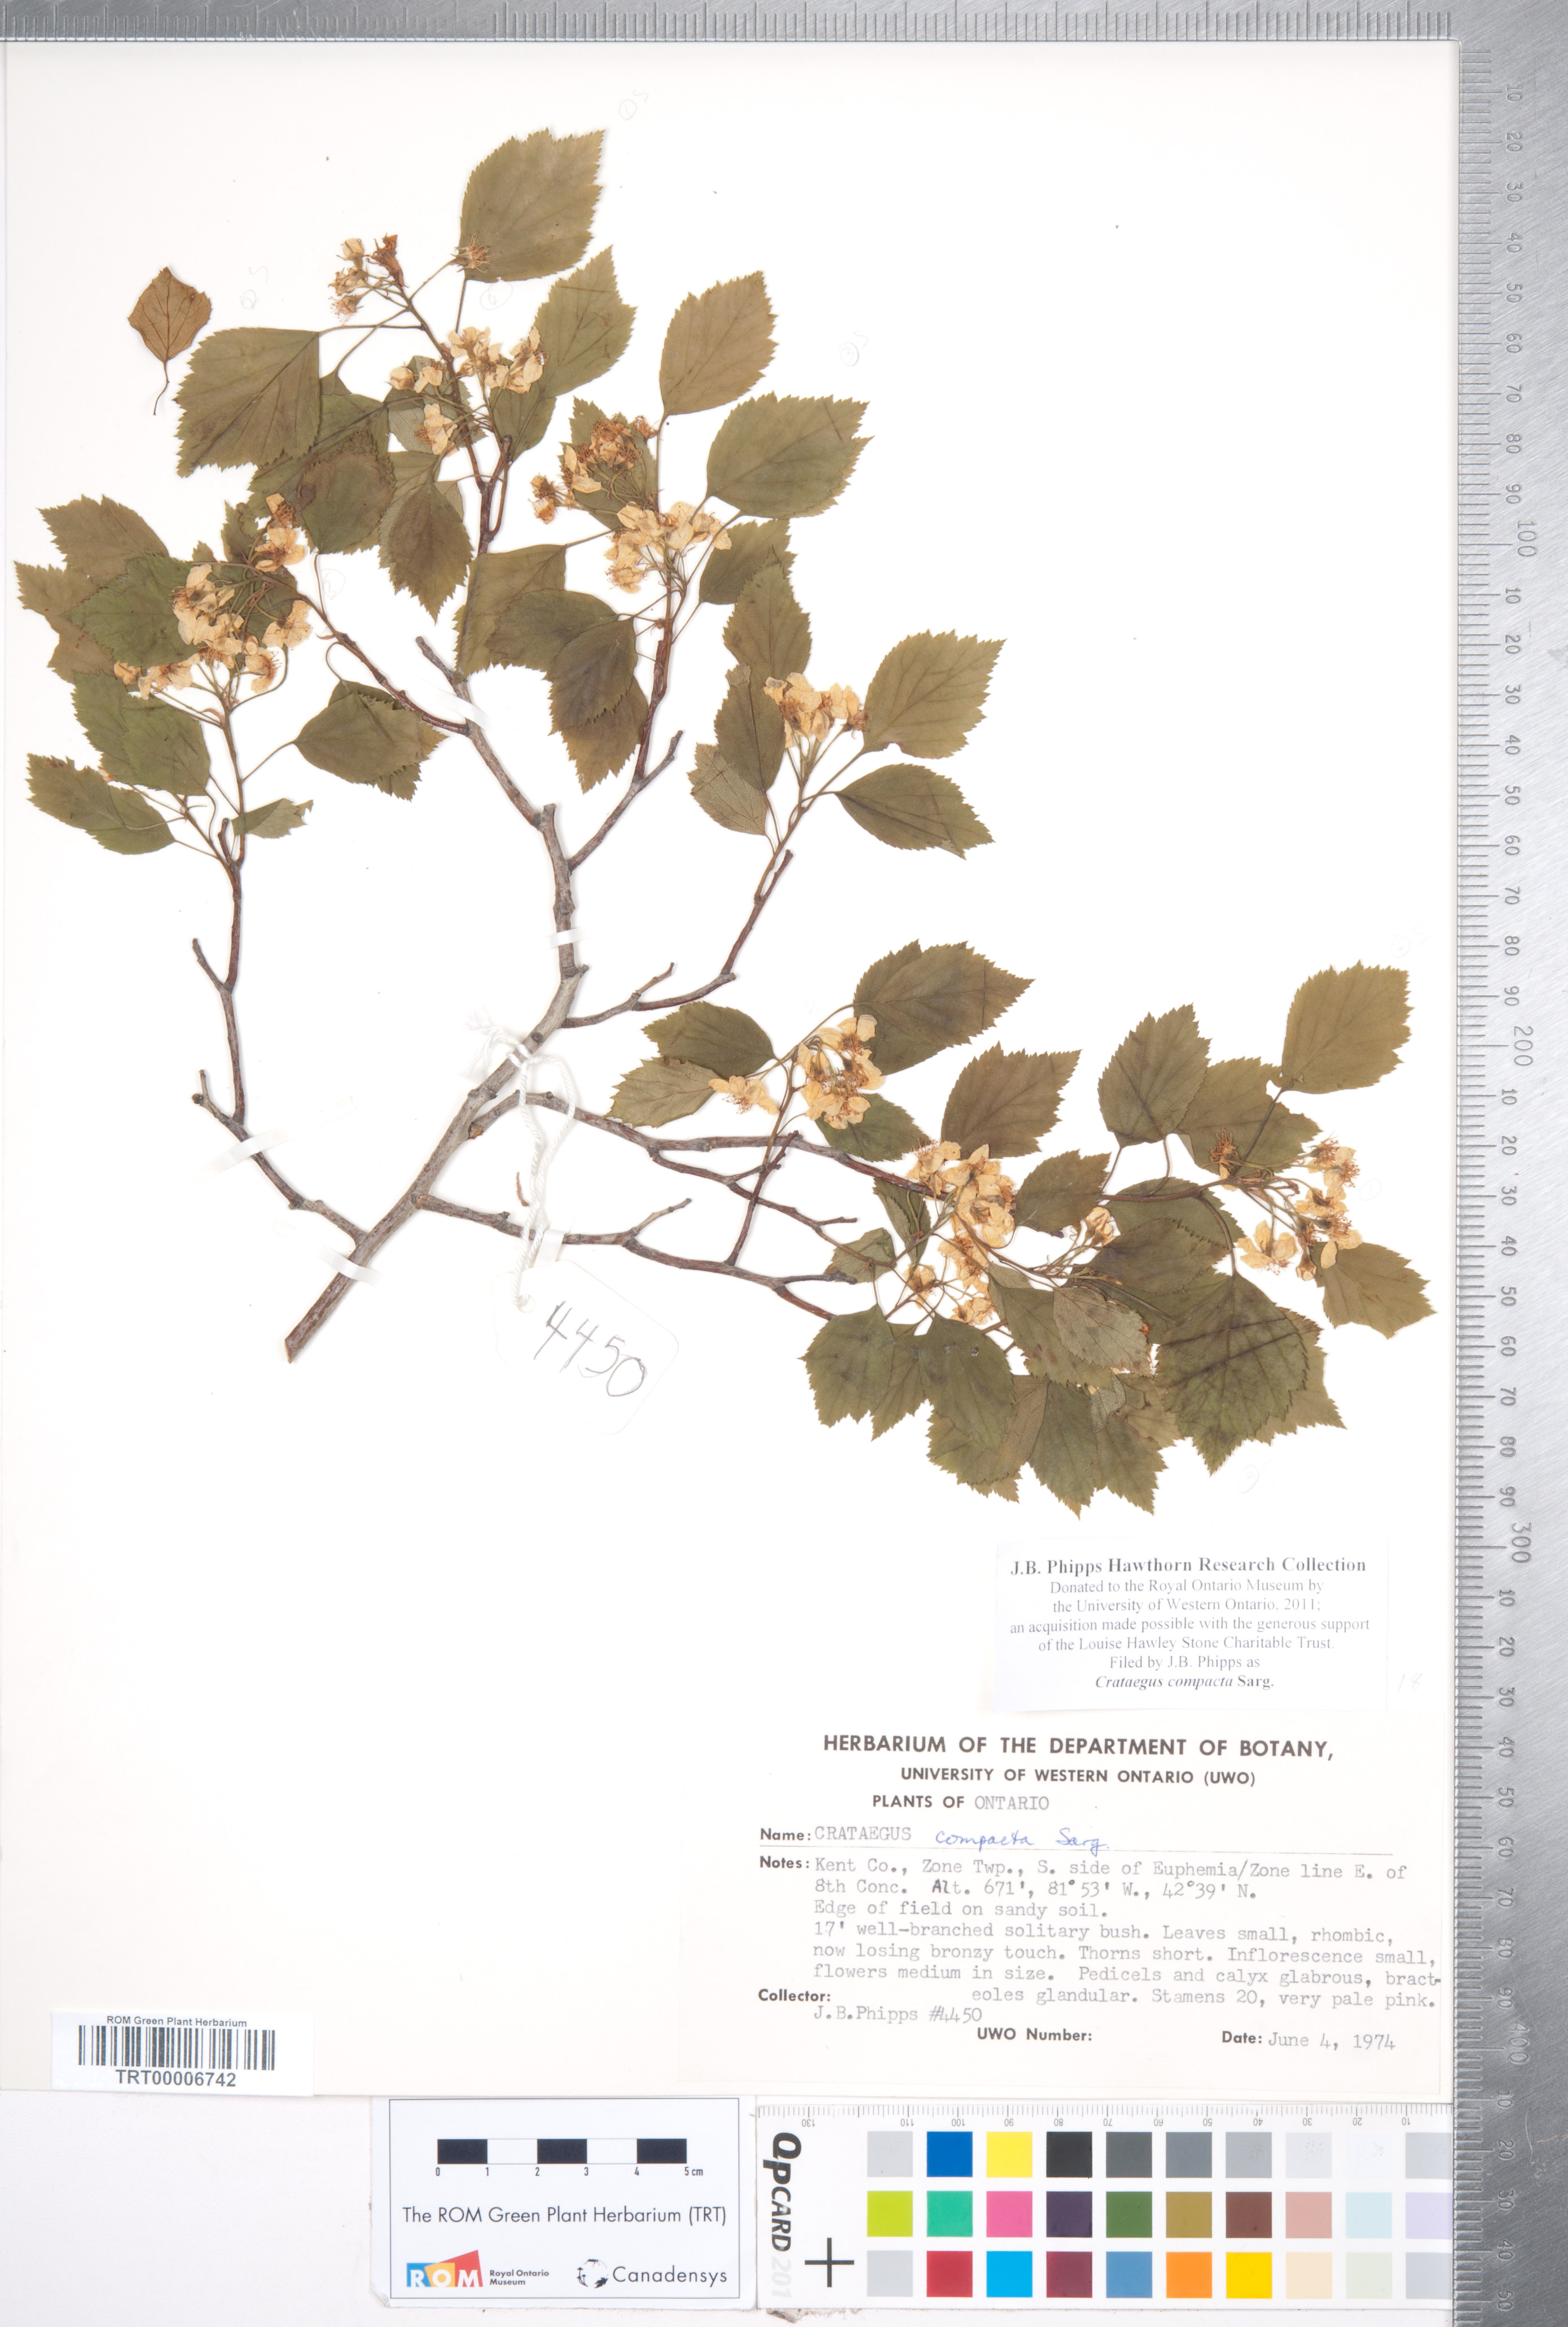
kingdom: Plantae
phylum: Tracheophyta
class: Magnoliopsida
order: Rosales
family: Rosaceae
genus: Crataegus
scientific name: Crataegus compacta
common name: Clustered hawthorn
